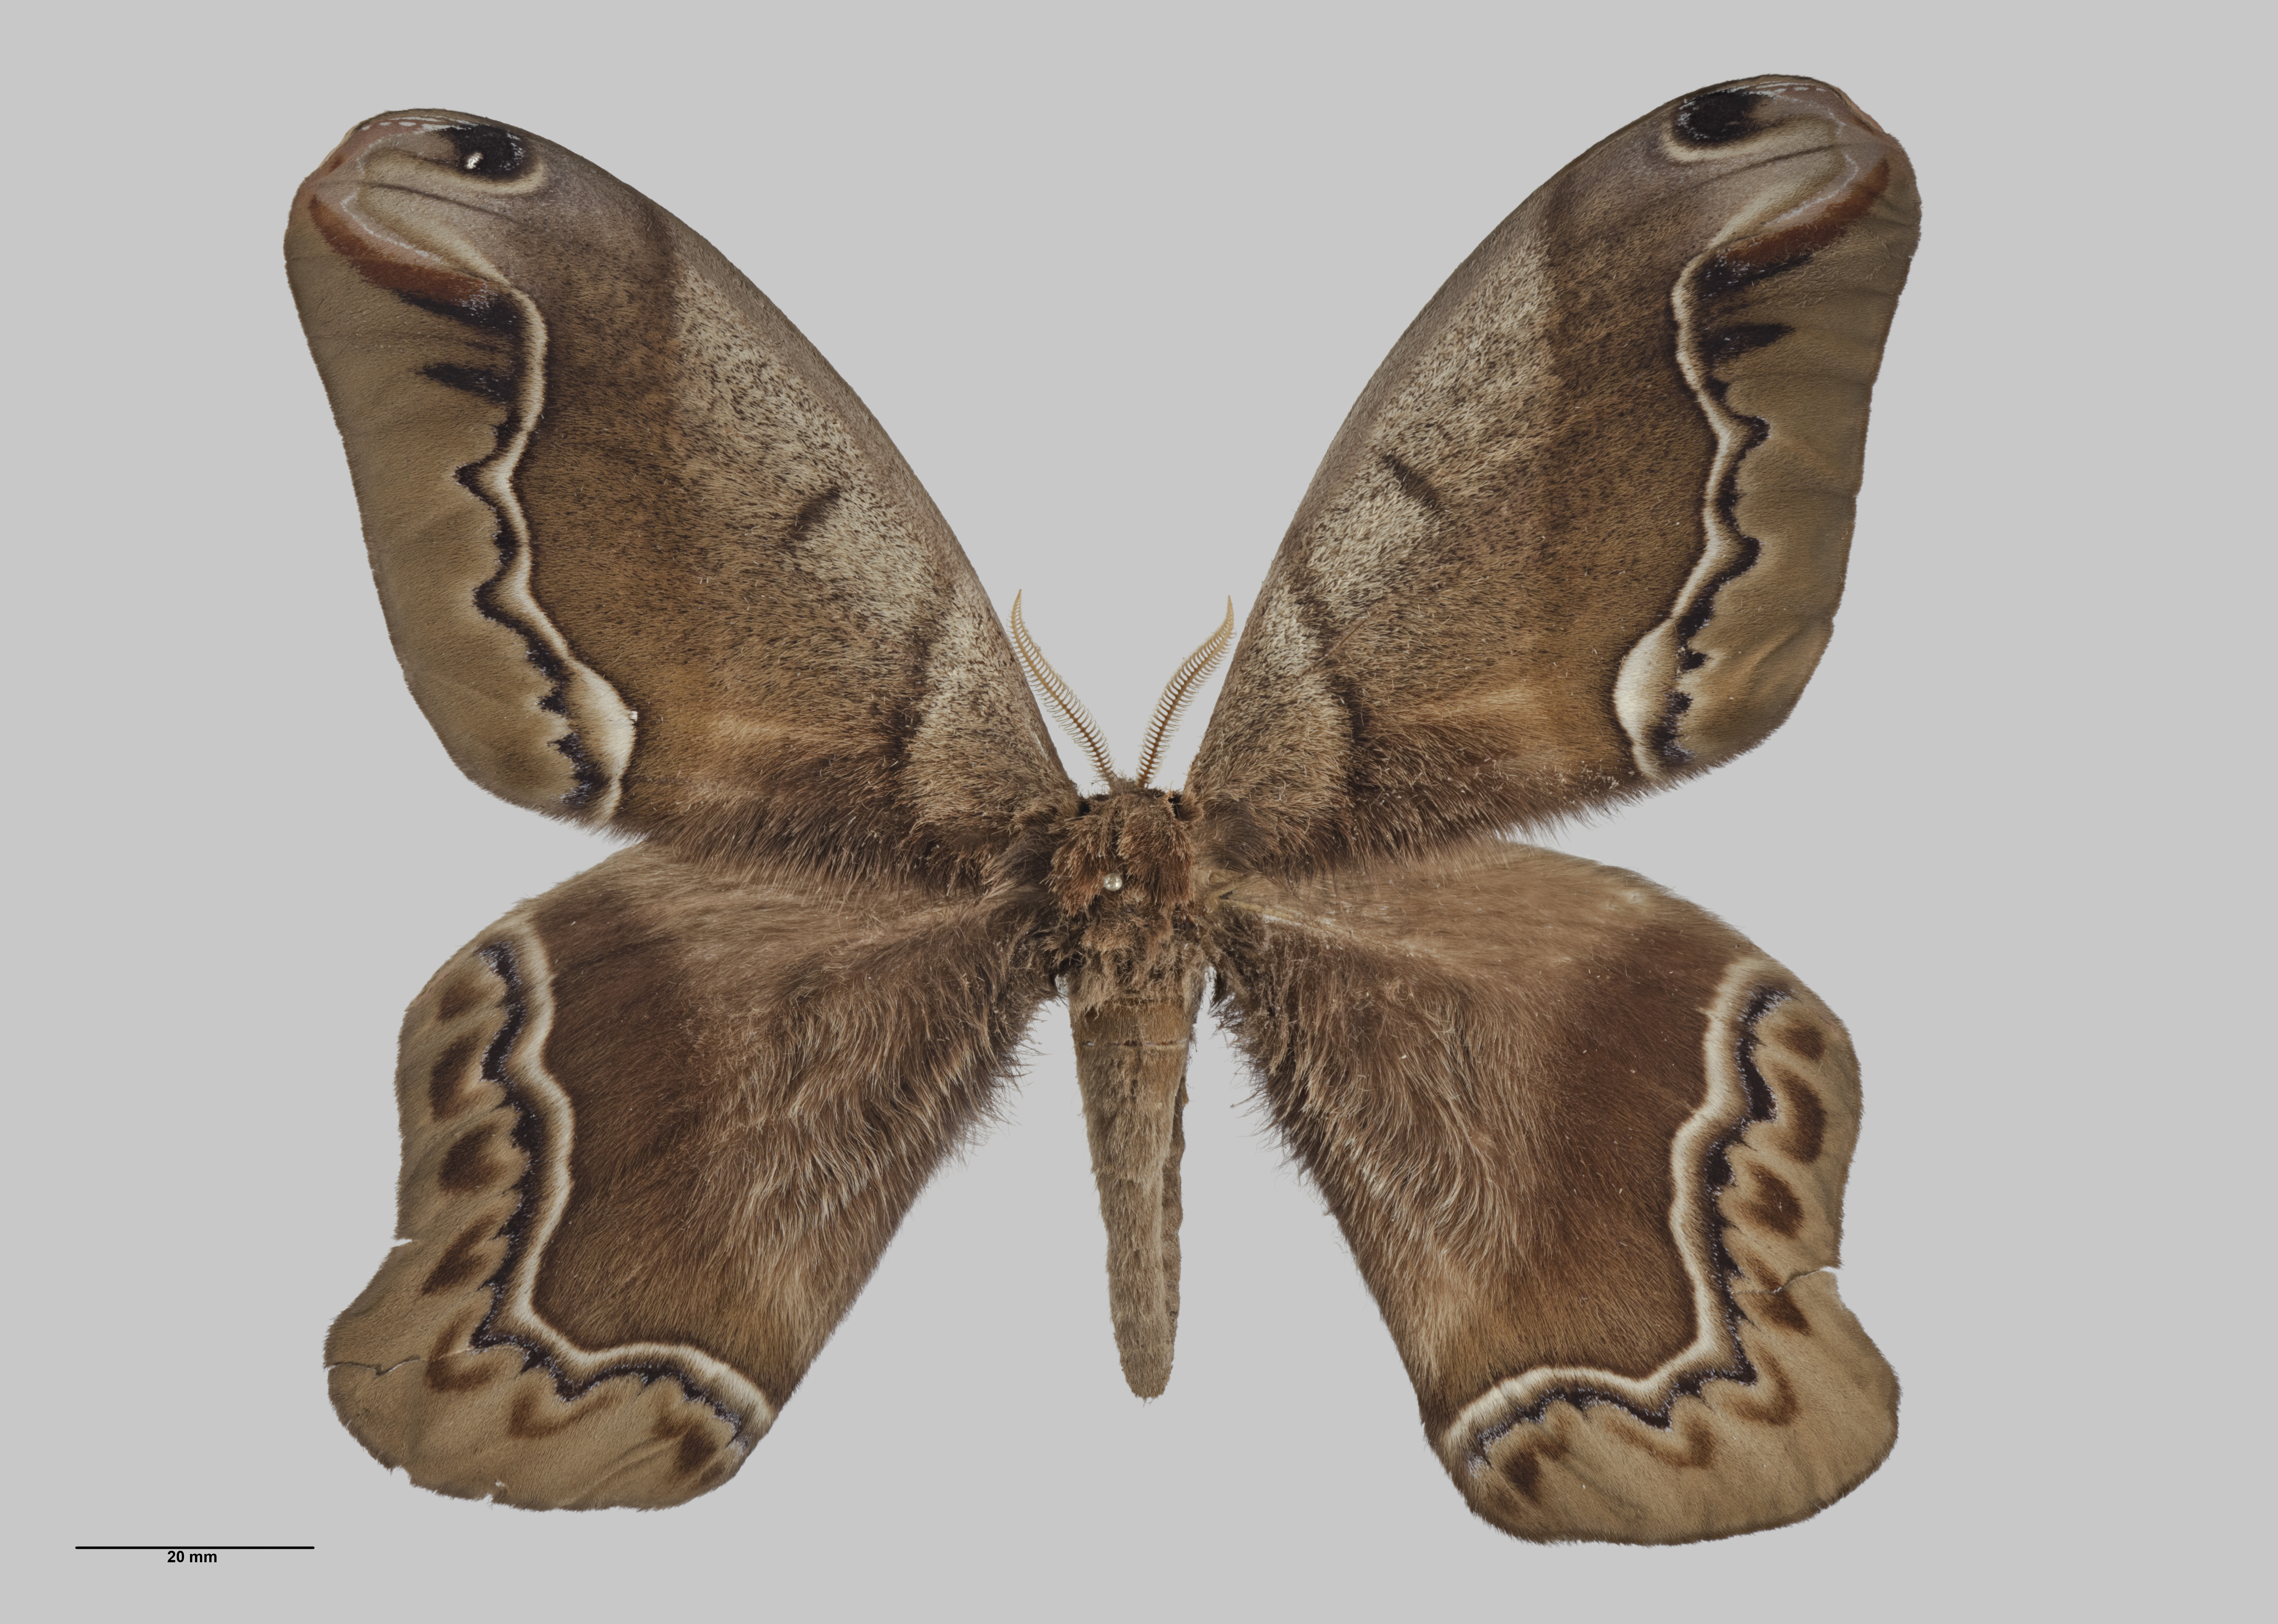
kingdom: Animalia
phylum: Arthropoda
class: Insecta
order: Lepidoptera
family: Saturniidae
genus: Arsenura
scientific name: Arsenura biundulata
